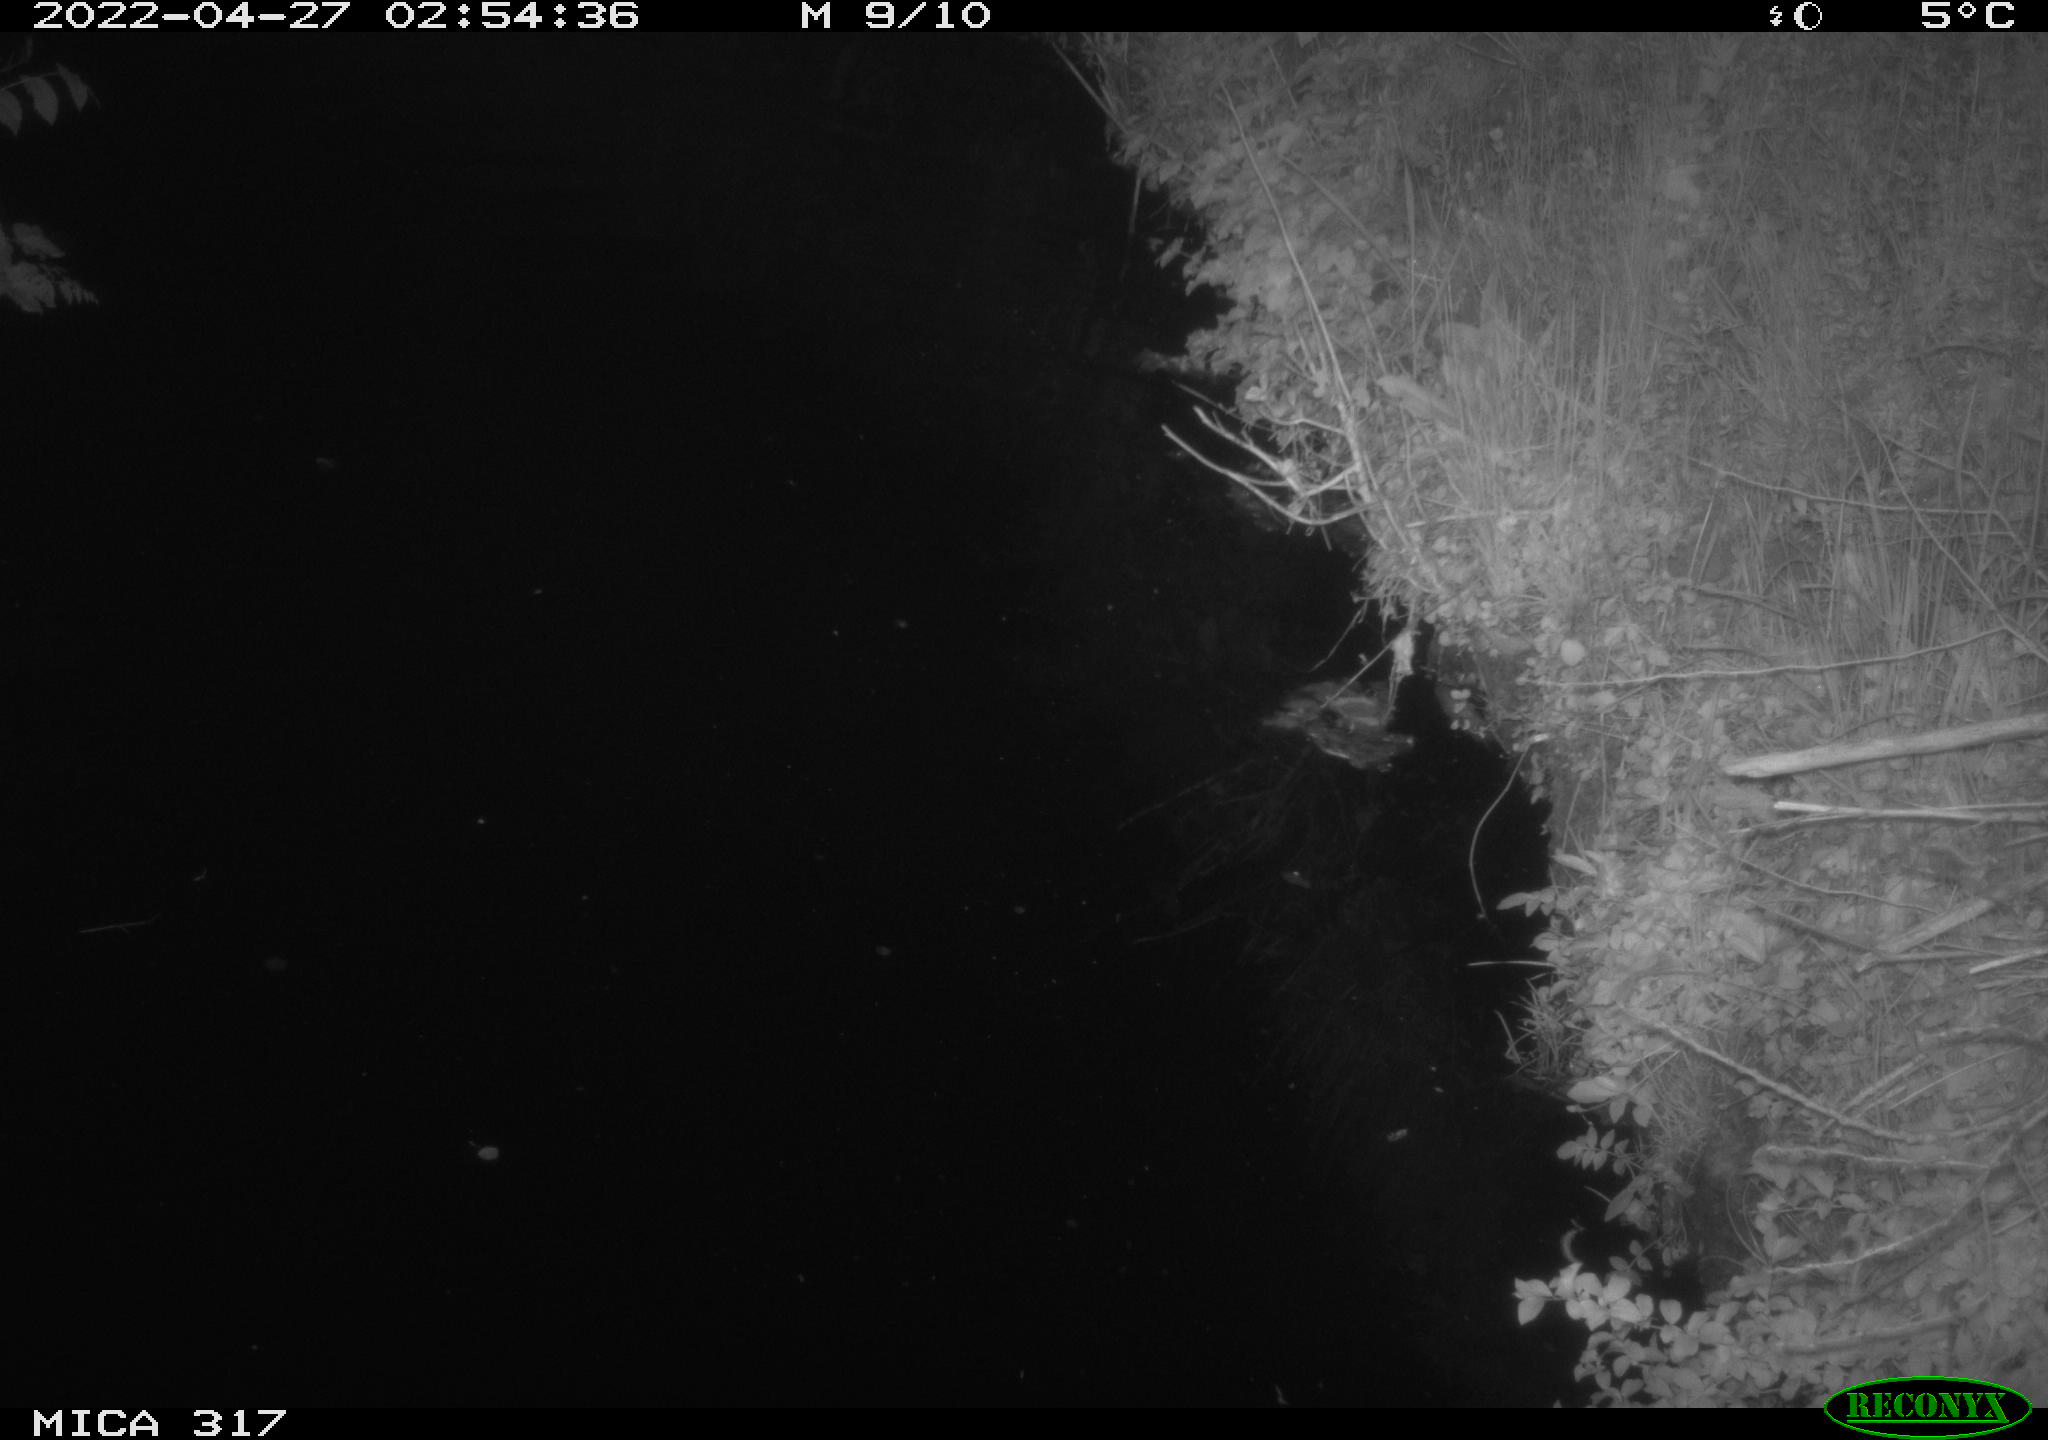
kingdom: Animalia
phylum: Chordata
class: Aves
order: Anseriformes
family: Anatidae
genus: Anas
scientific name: Anas platyrhynchos
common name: Mallard
